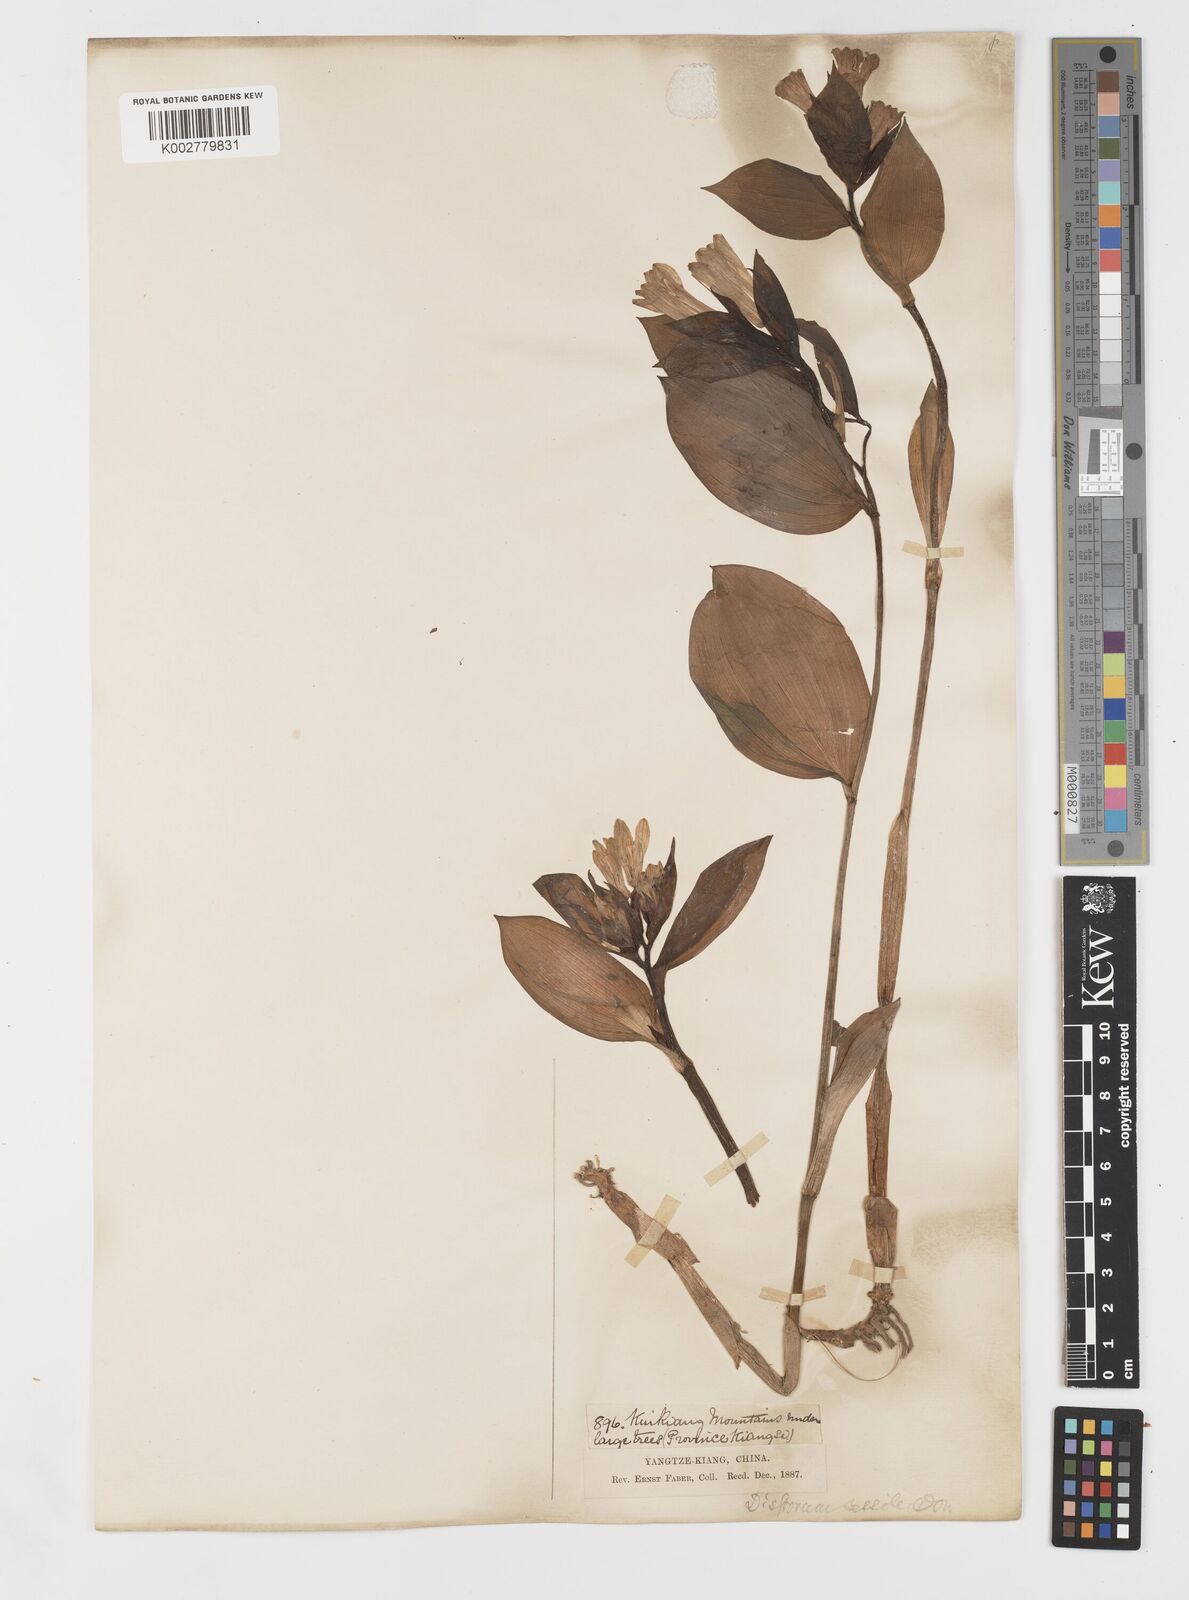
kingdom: Plantae
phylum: Tracheophyta
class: Liliopsida
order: Liliales
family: Colchicaceae
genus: Disporum
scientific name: Disporum sessile
